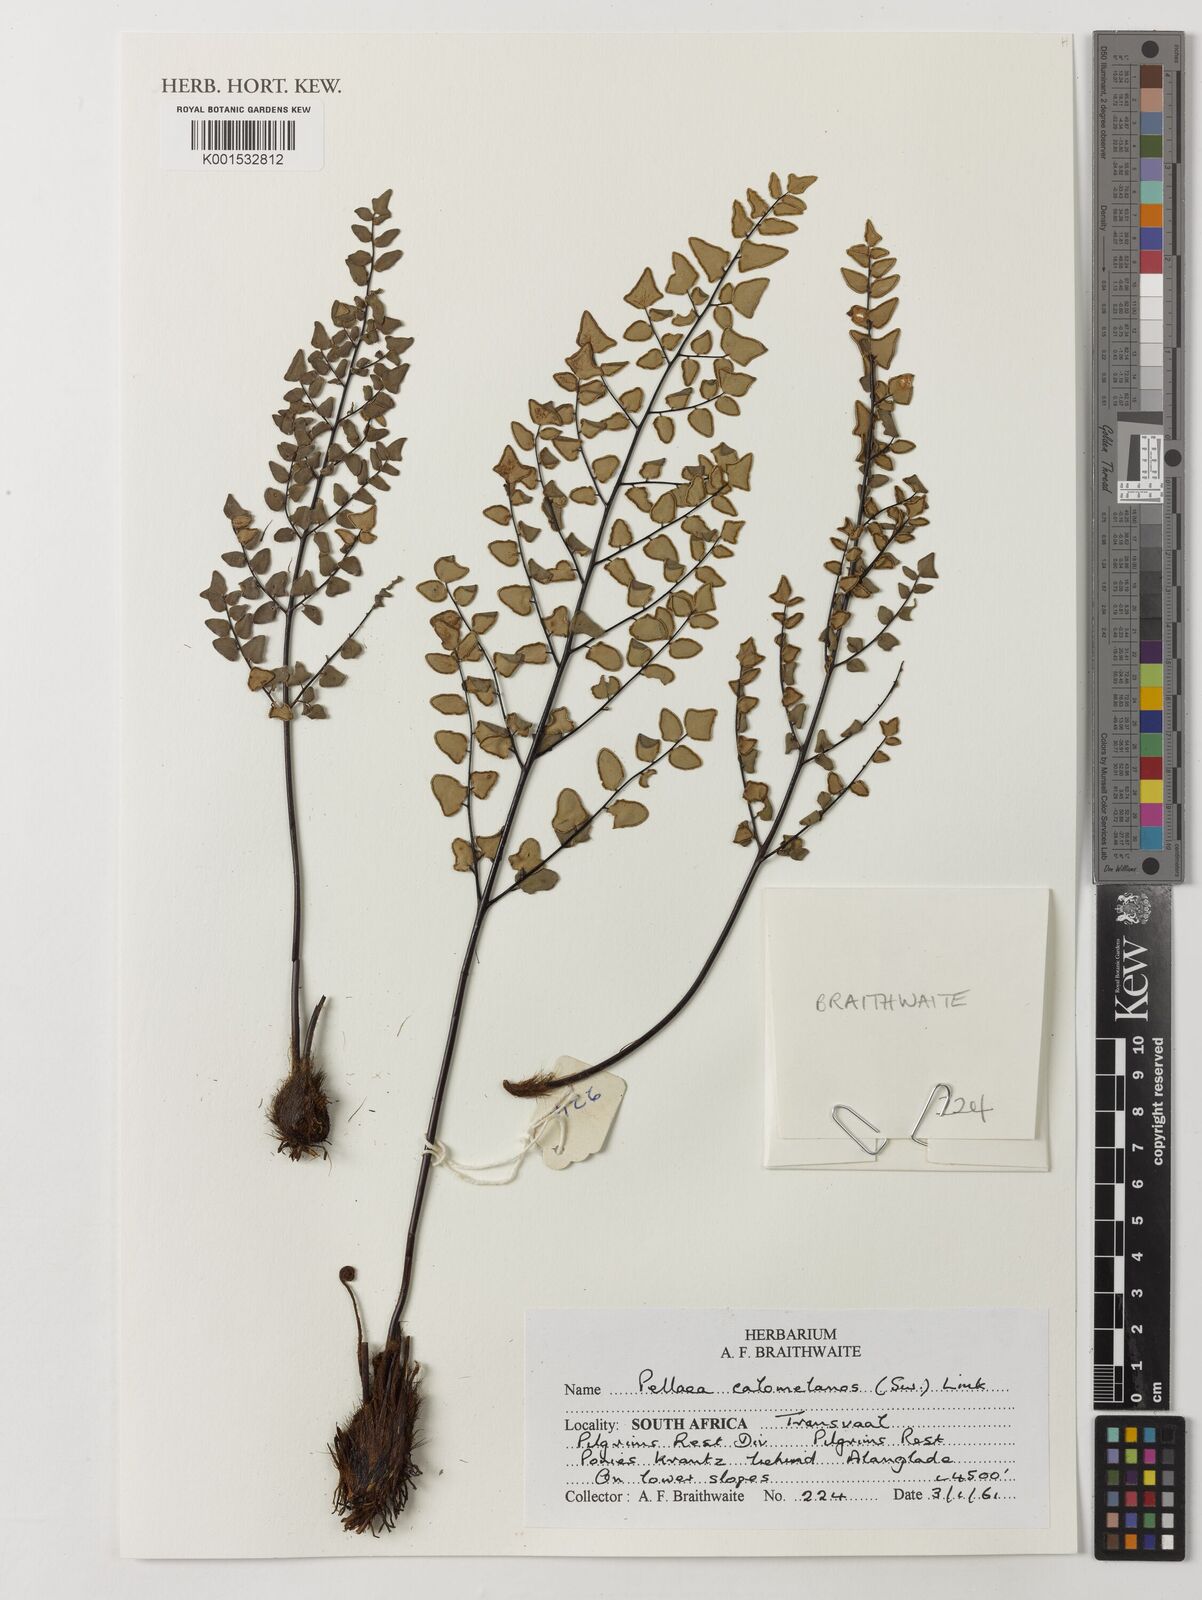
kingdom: Plantae
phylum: Tracheophyta
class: Polypodiopsida
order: Polypodiales
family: Pteridaceae
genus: Pellaea
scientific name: Pellaea calomelanos
